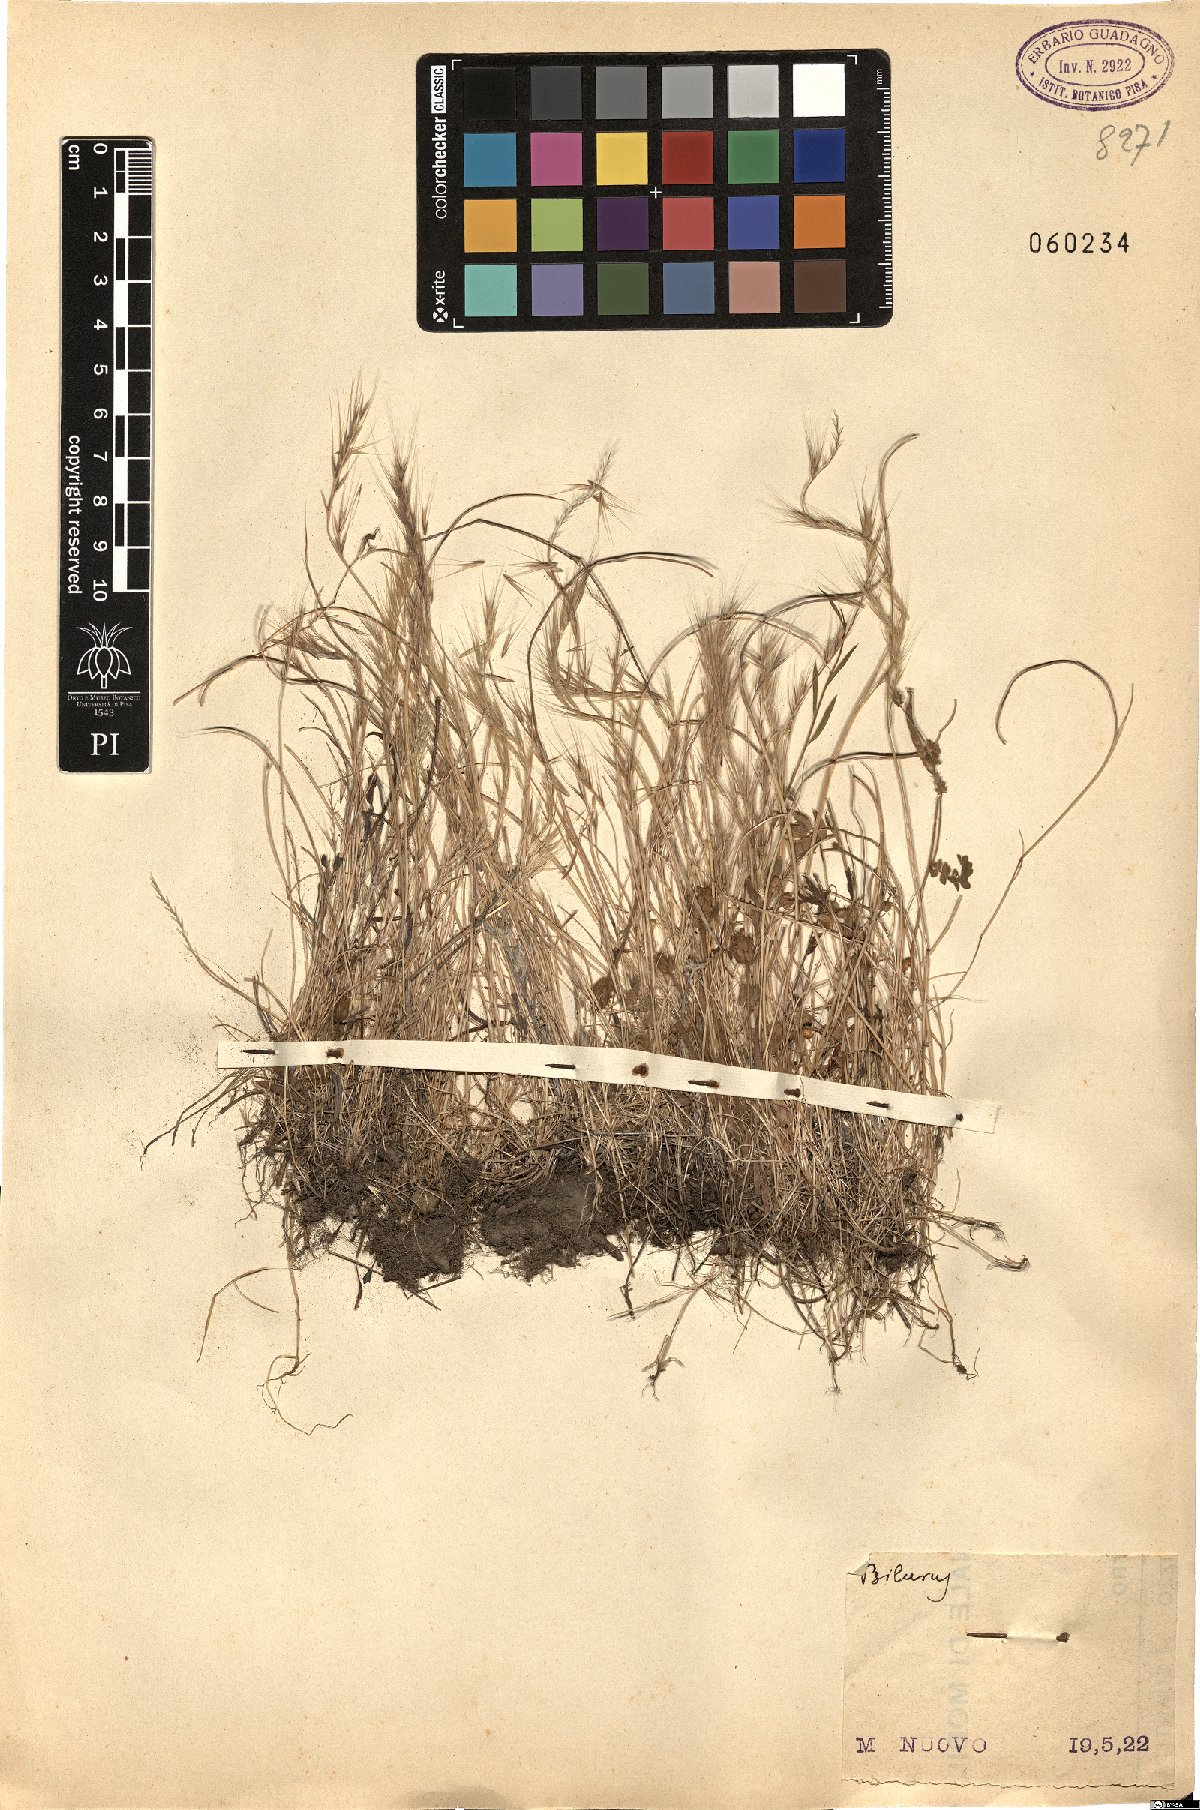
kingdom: Plantae
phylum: Tracheophyta
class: Liliopsida
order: Poales
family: Poaceae
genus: Festuca
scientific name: Festuca
